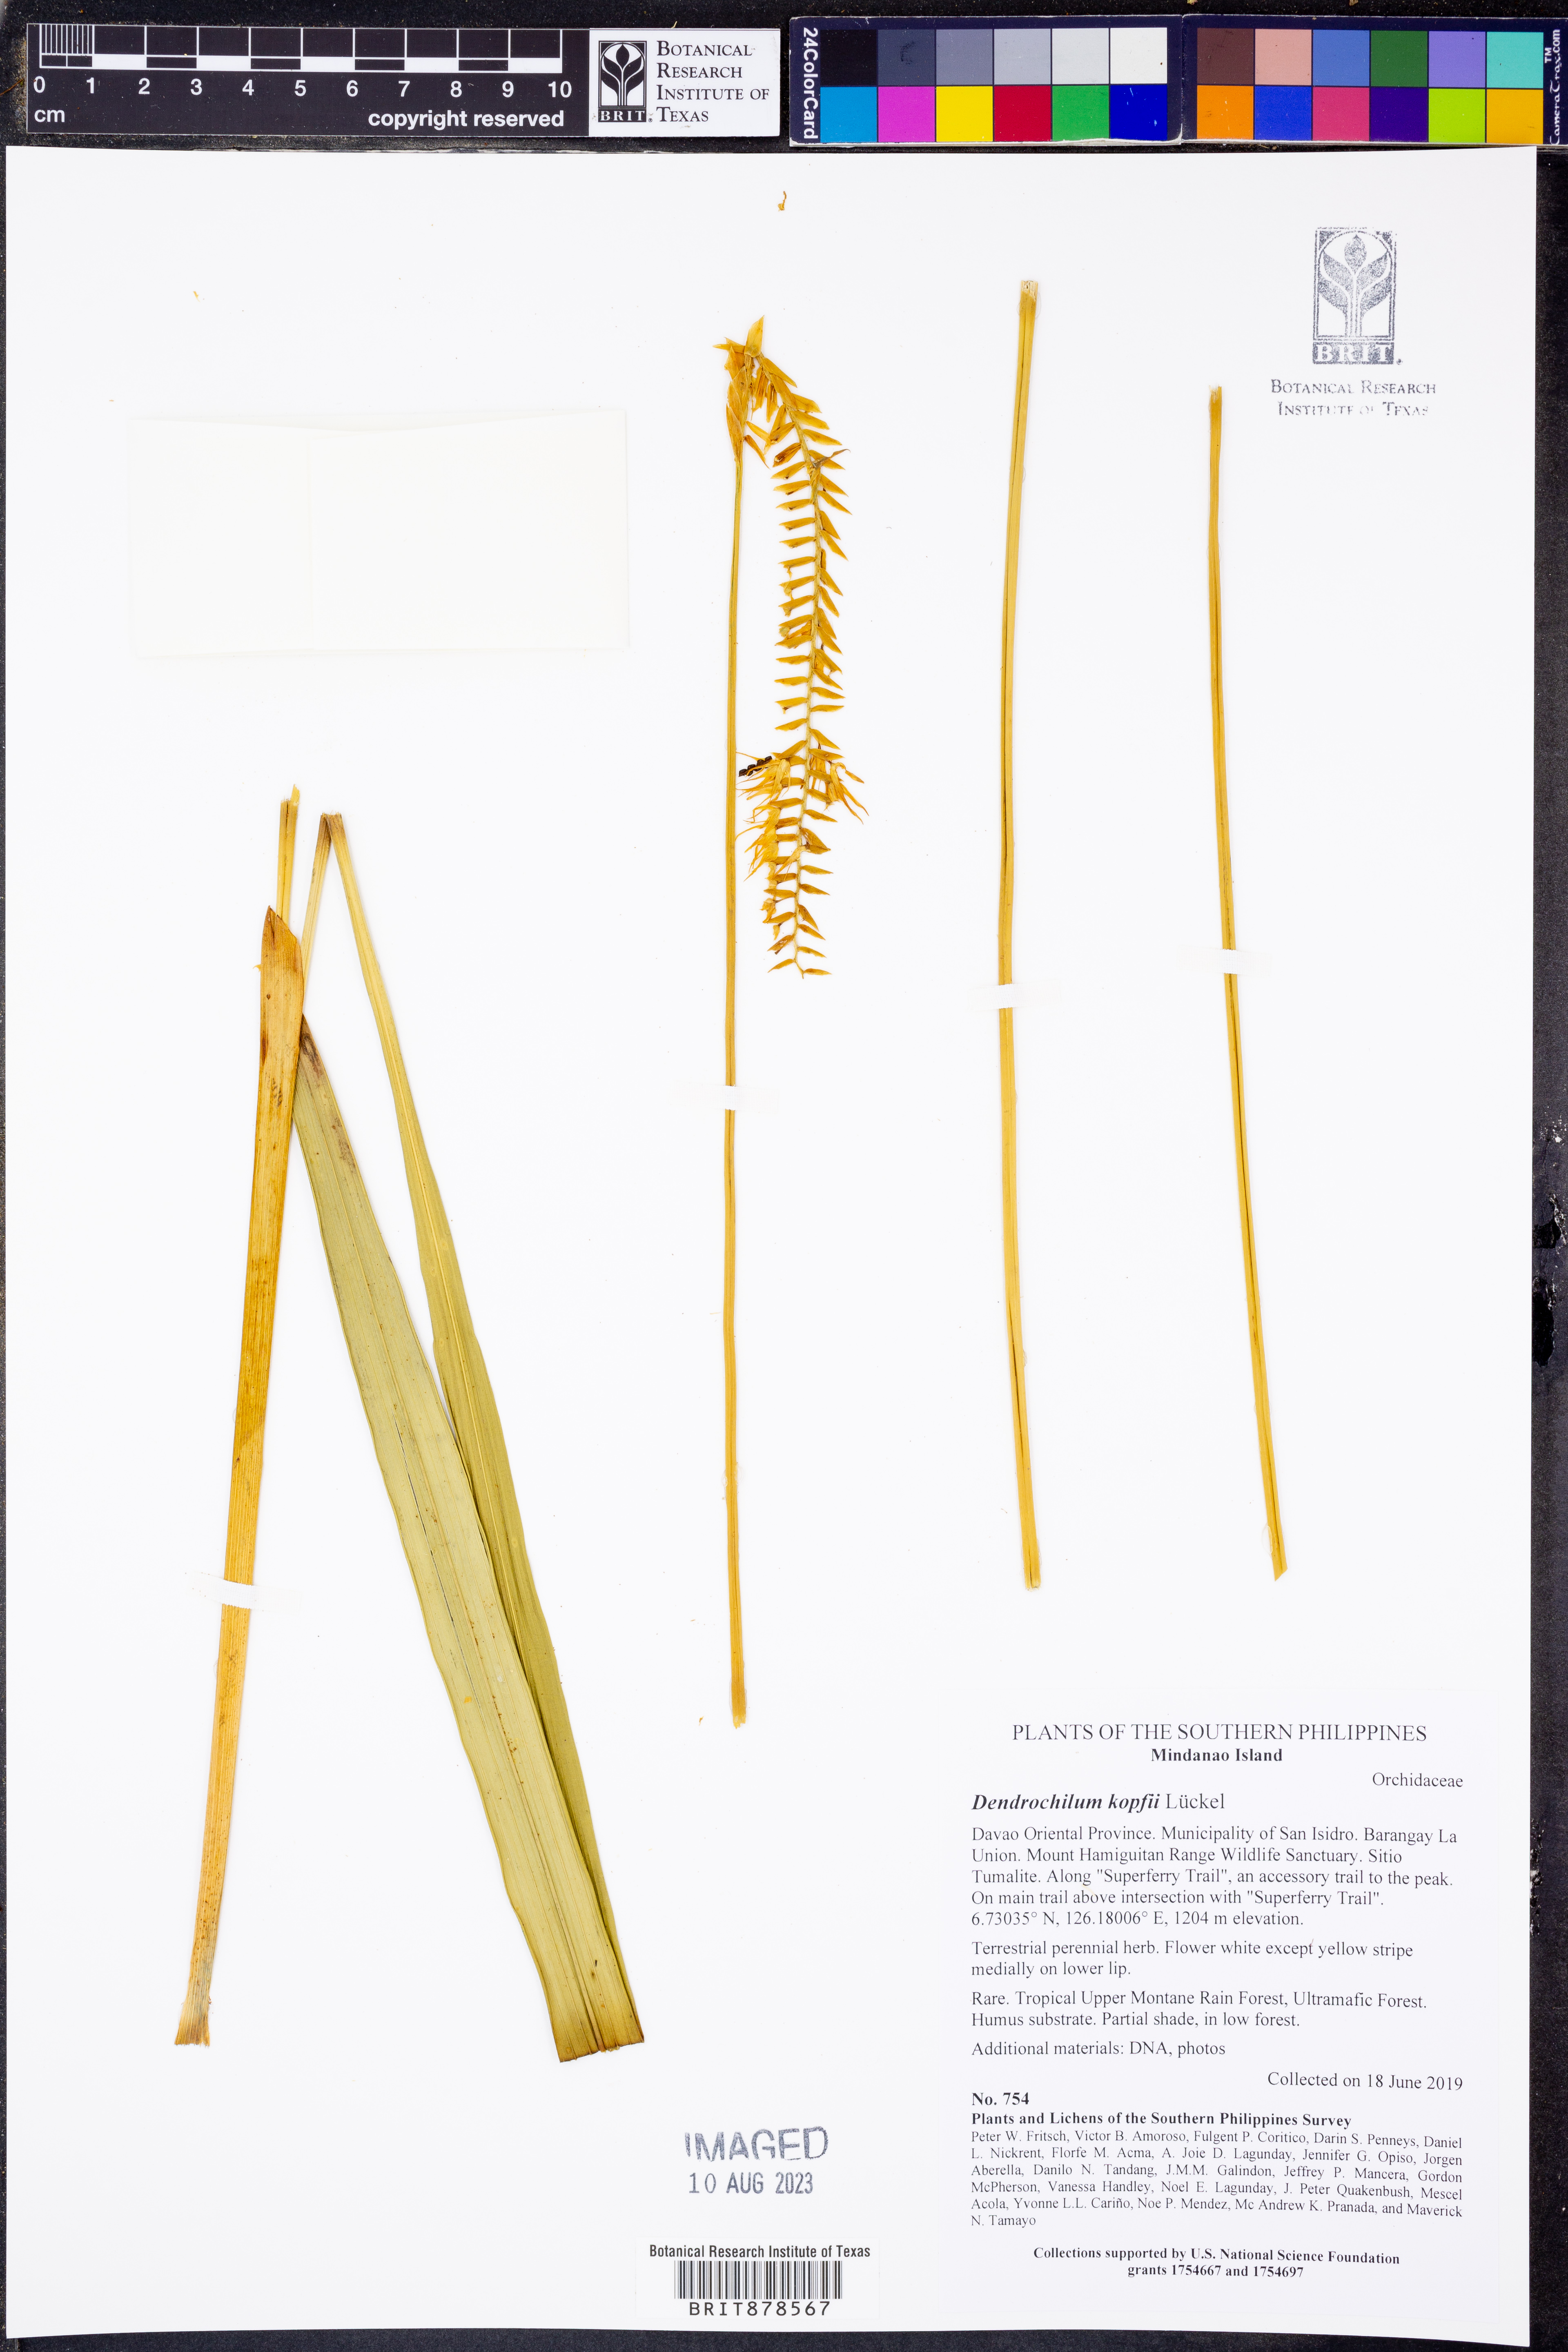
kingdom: Plantae
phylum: Tracheophyta
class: Liliopsida
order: Asparagales
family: Orchidaceae
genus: Coelogyne
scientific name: Coelogyne kopfii
